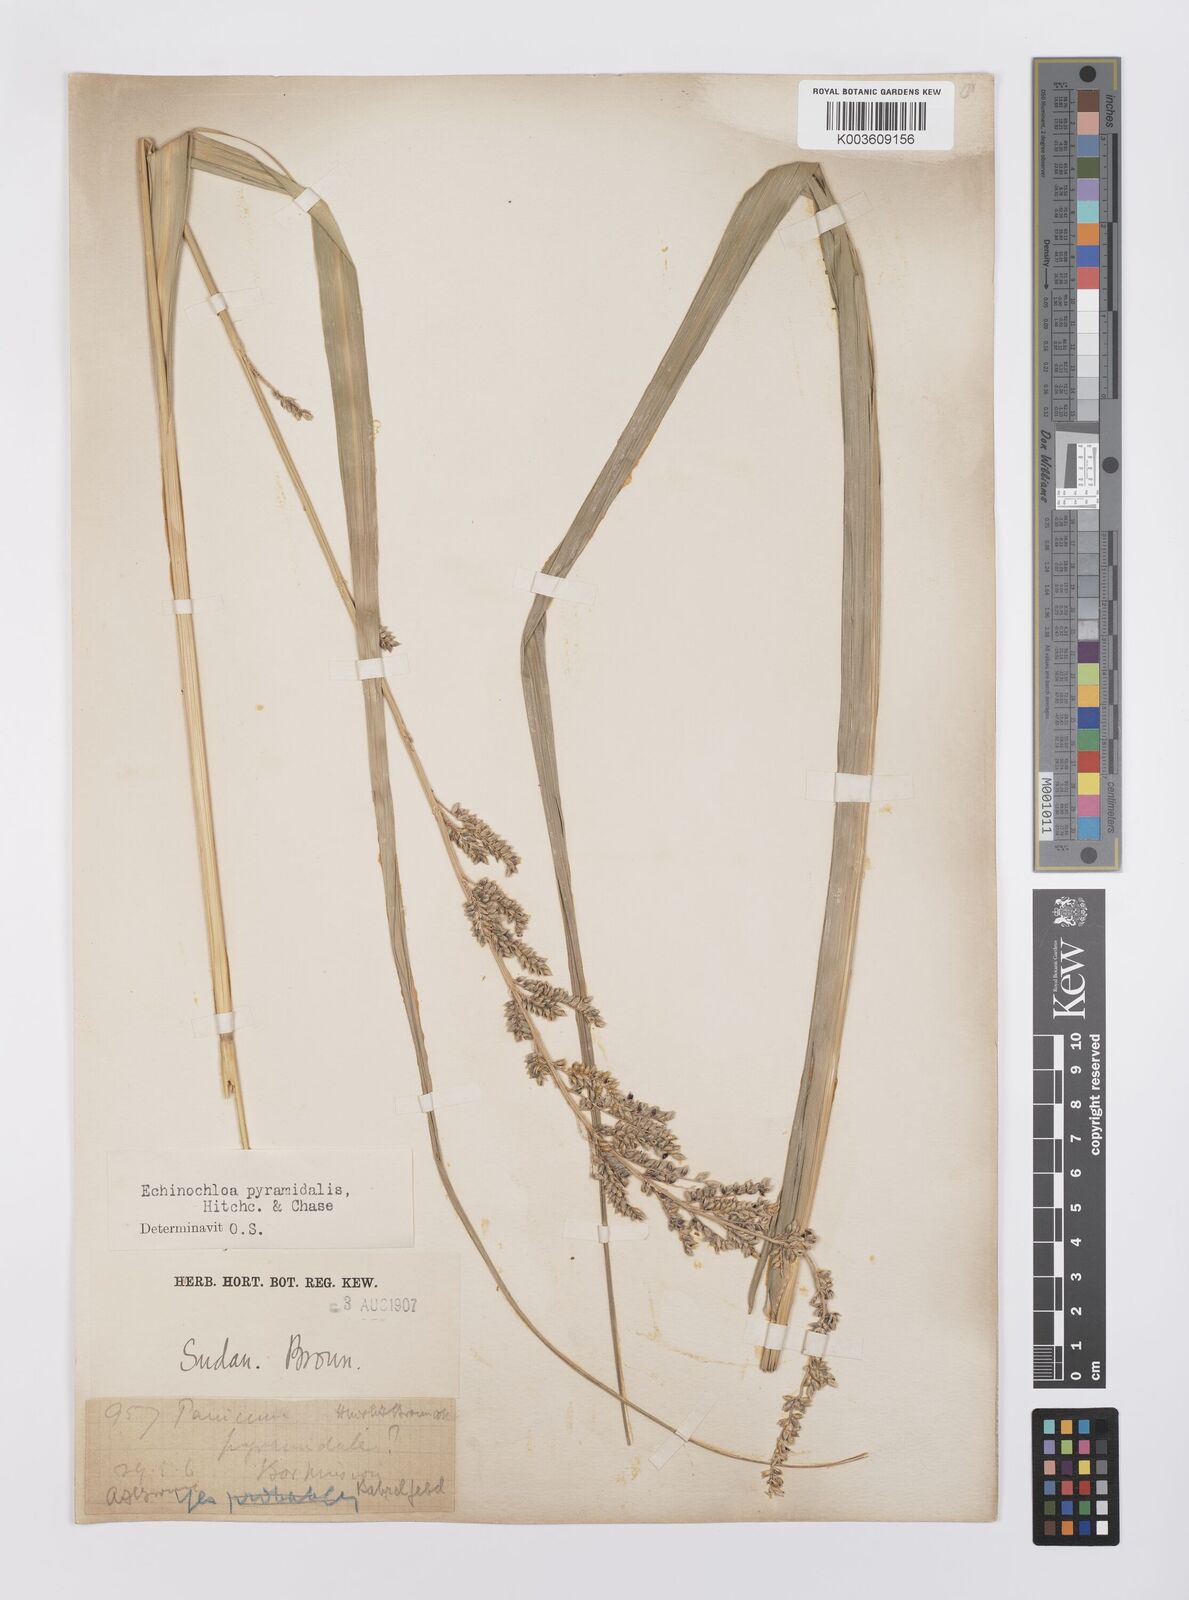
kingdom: Plantae
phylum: Tracheophyta
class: Liliopsida
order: Poales
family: Poaceae
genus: Echinochloa
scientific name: Echinochloa pyramidalis
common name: Antelope grass
